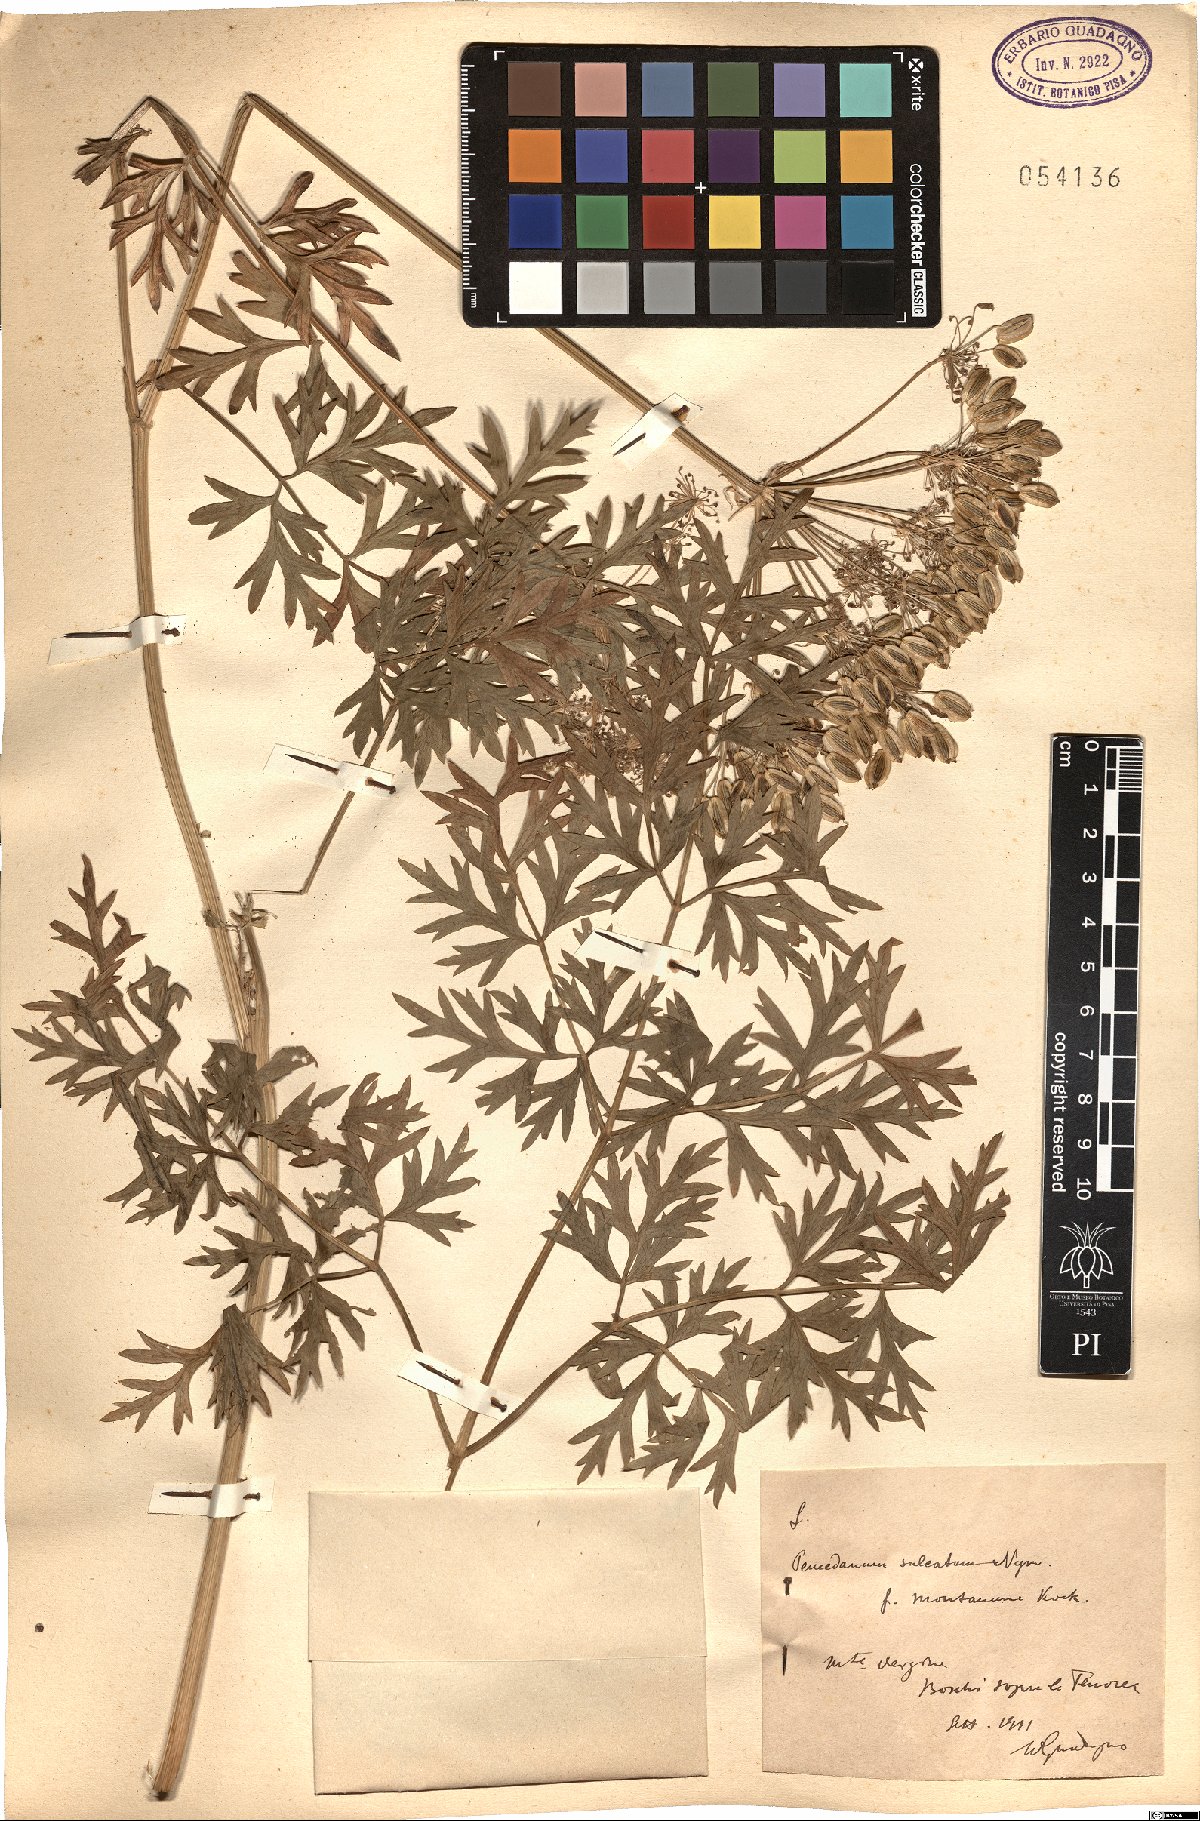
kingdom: Plantae
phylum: Tracheophyta
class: Magnoliopsida
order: Apiales
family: Apiaceae
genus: Cynorhiza
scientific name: Cynorhiza typica
